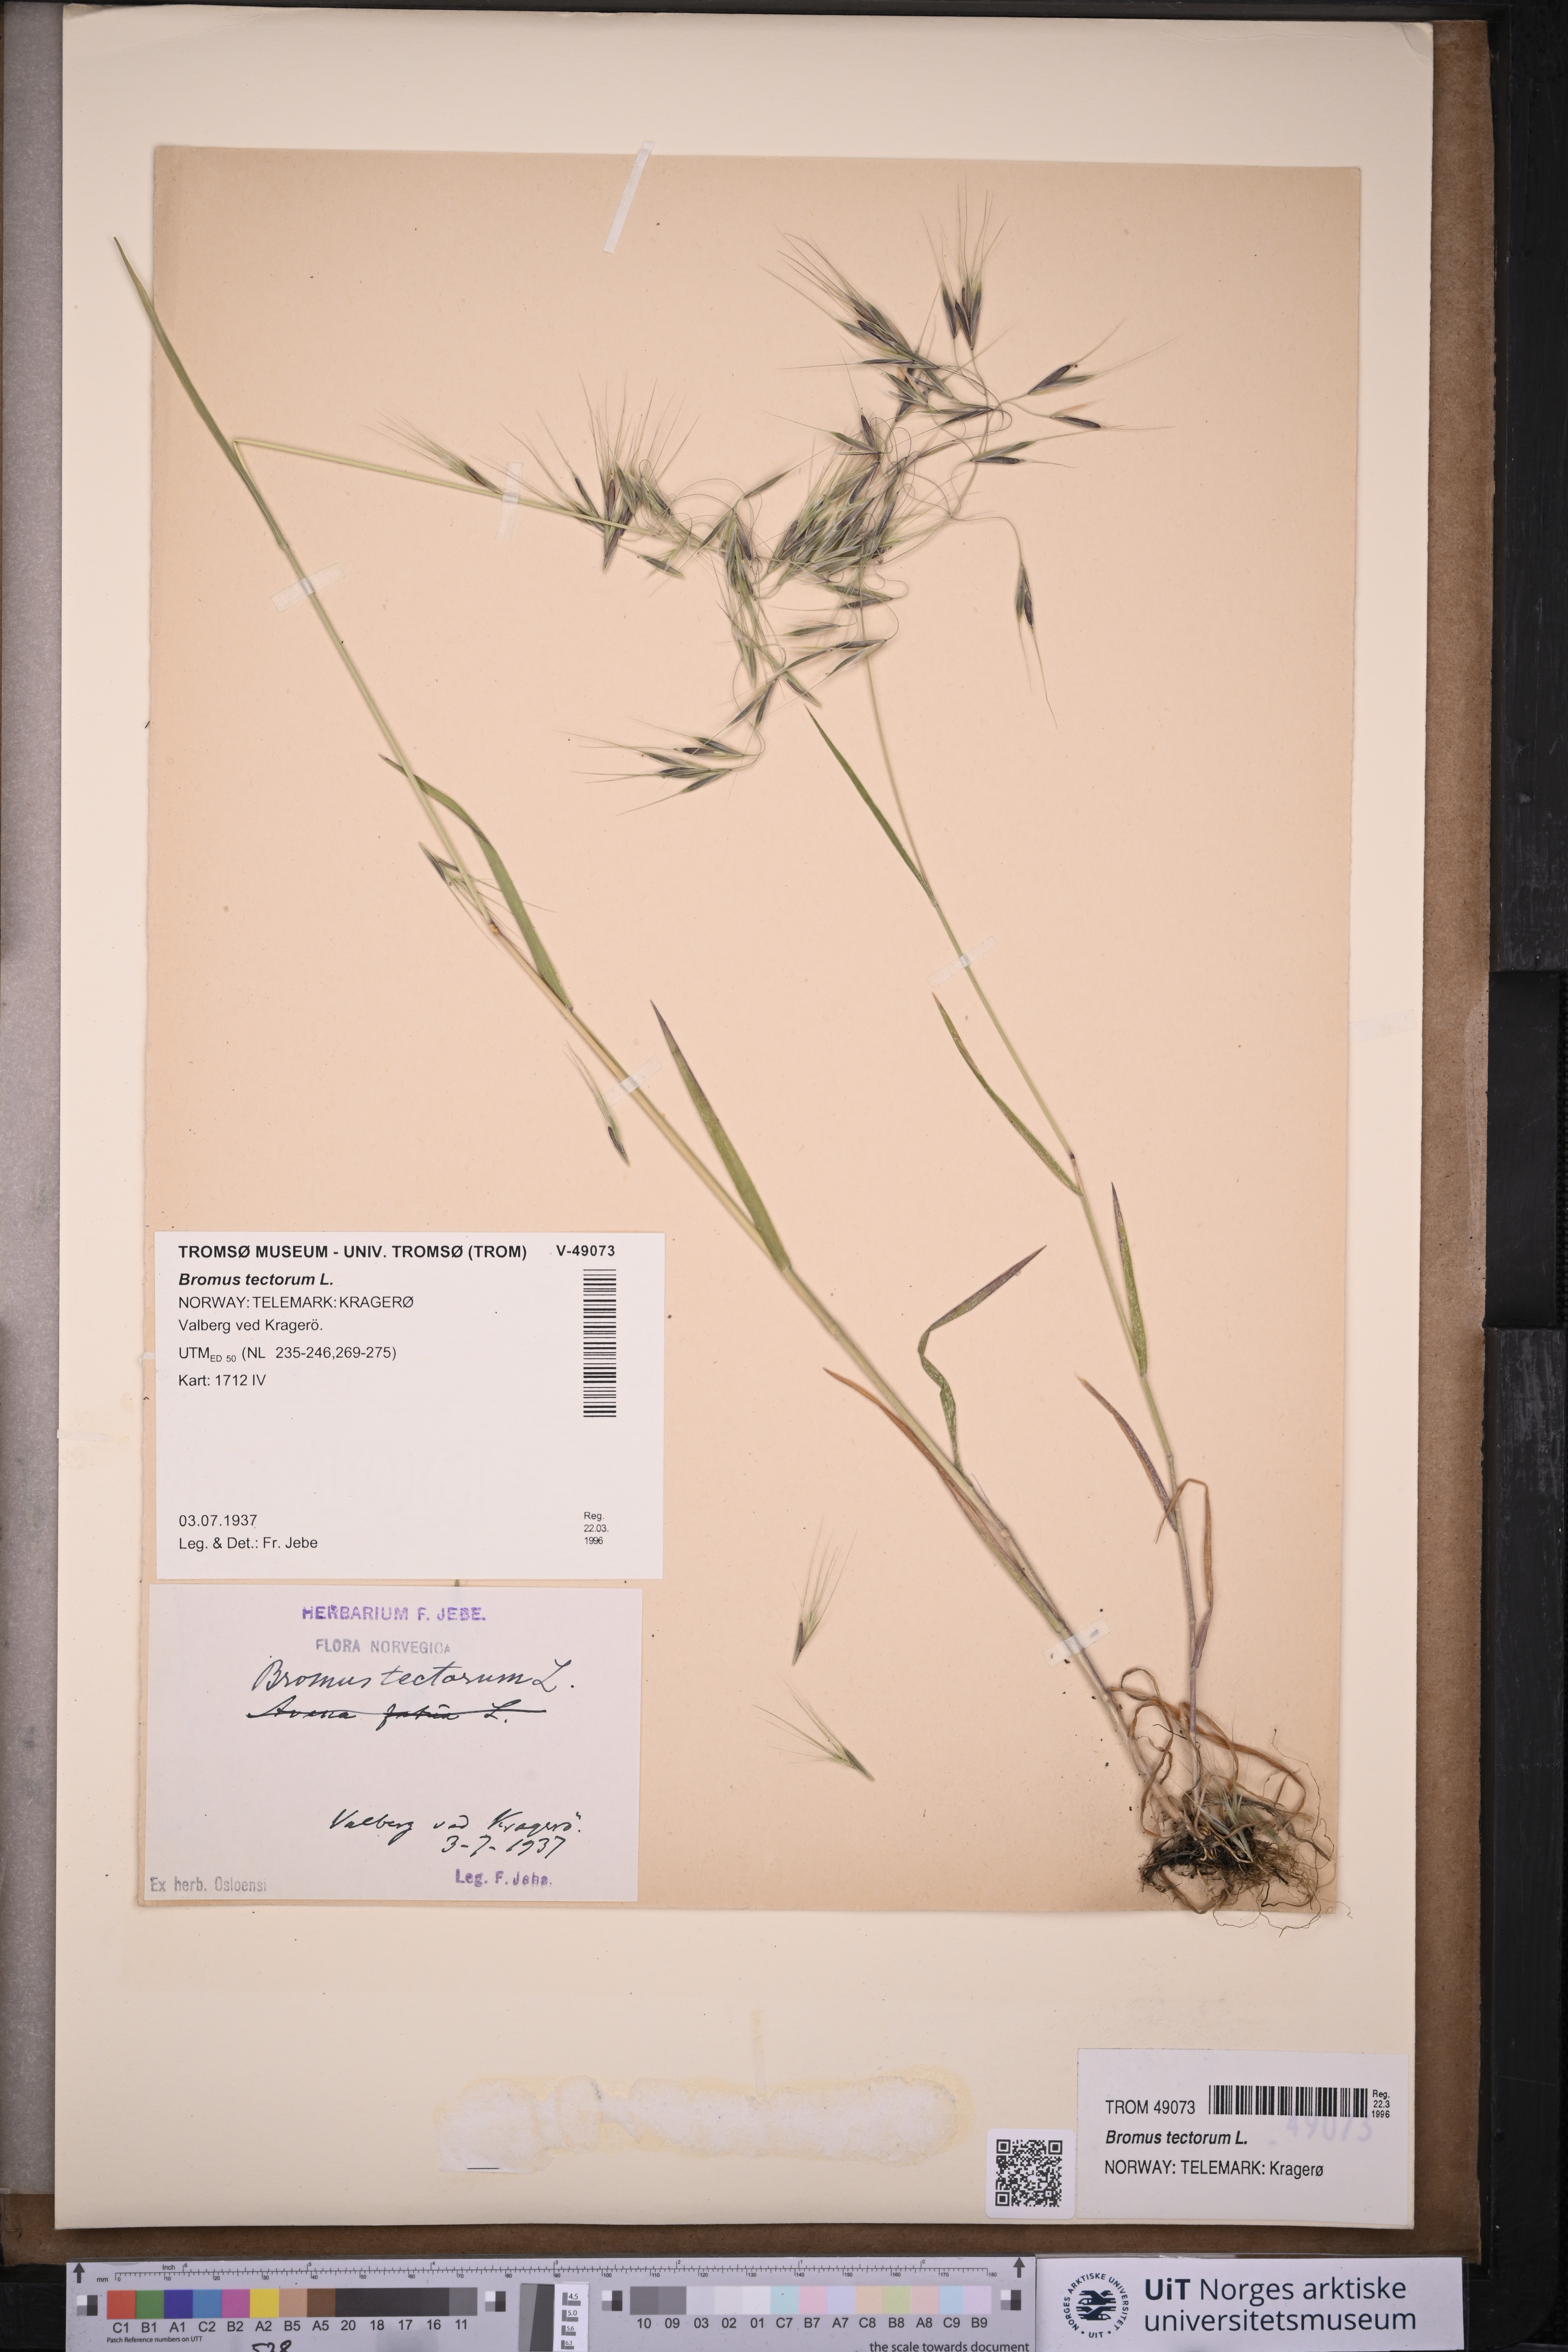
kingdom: Plantae
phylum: Tracheophyta
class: Liliopsida
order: Poales
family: Poaceae
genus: Bromus
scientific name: Bromus tectorum
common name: Cheatgrass
